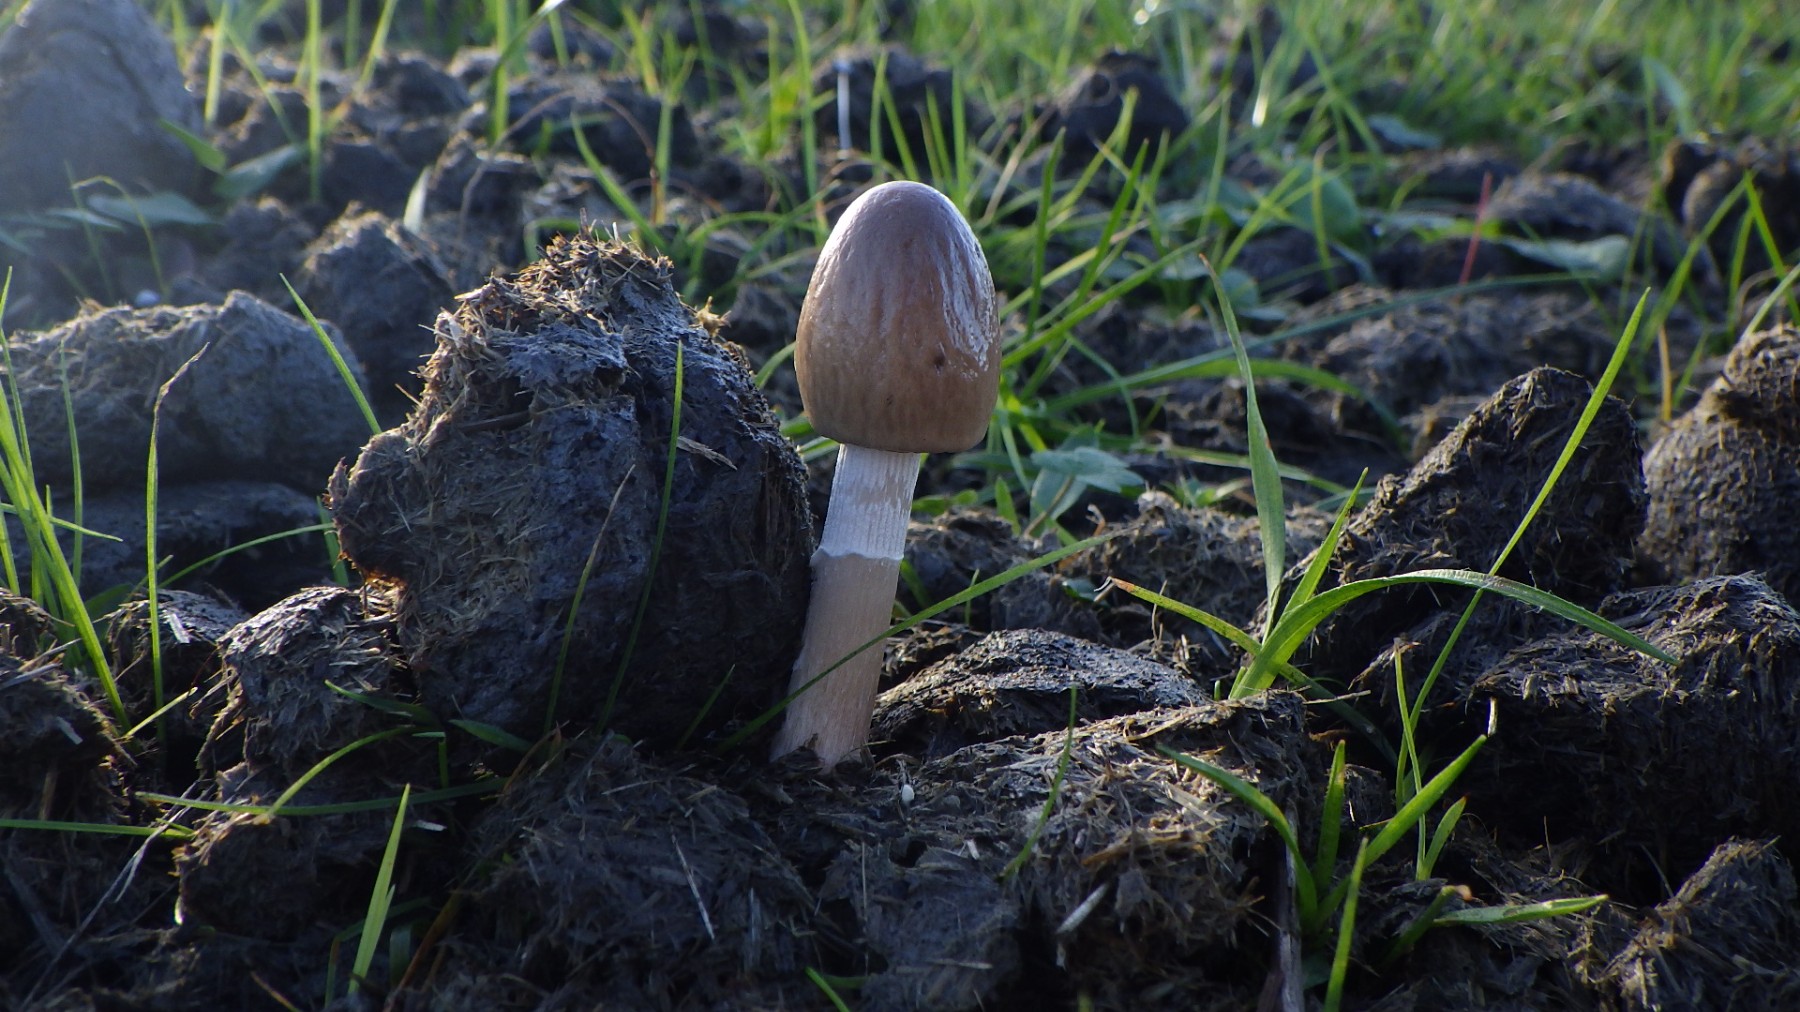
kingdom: Fungi
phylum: Basidiomycota
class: Agaricomycetes
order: Agaricales
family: Bolbitiaceae
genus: Panaeolus
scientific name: Panaeolus semiovatus
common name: ring-glanshat
